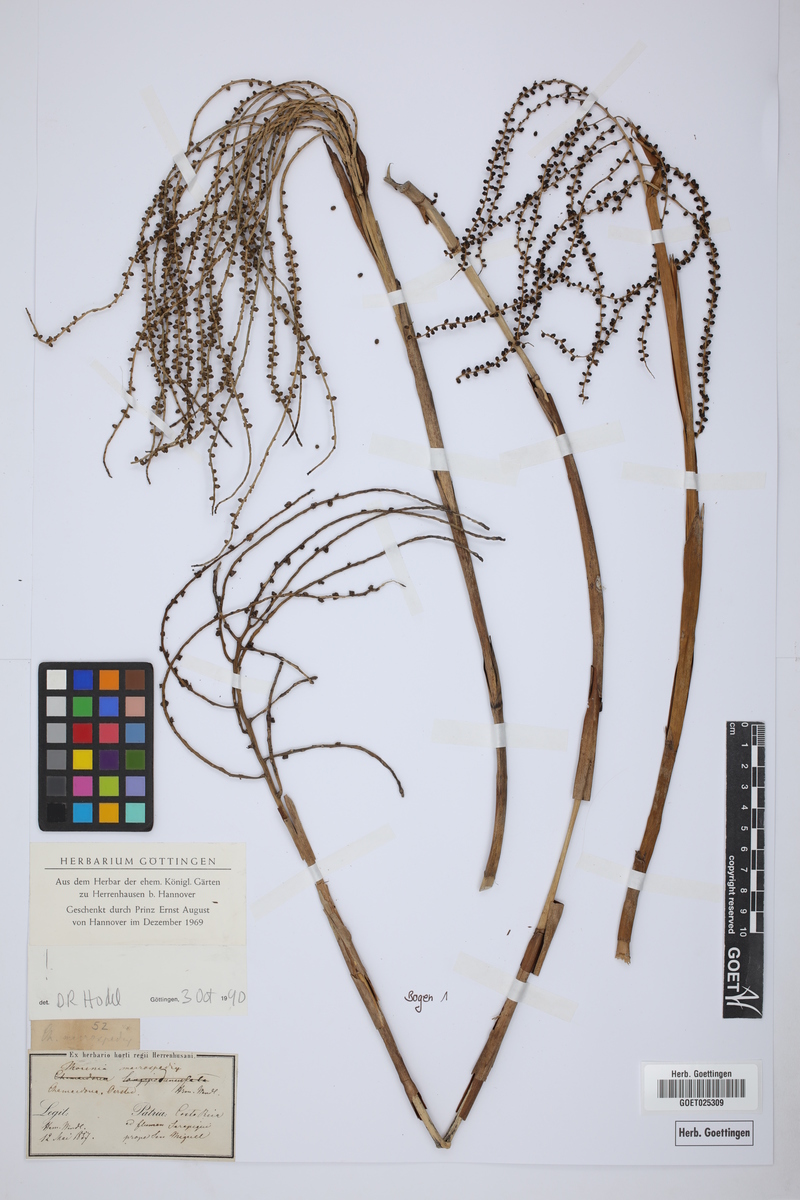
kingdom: Plantae
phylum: Tracheophyta
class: Liliopsida
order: Arecales
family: Arecaceae
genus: Chamaedorea
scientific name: Chamaedorea macrospadix
